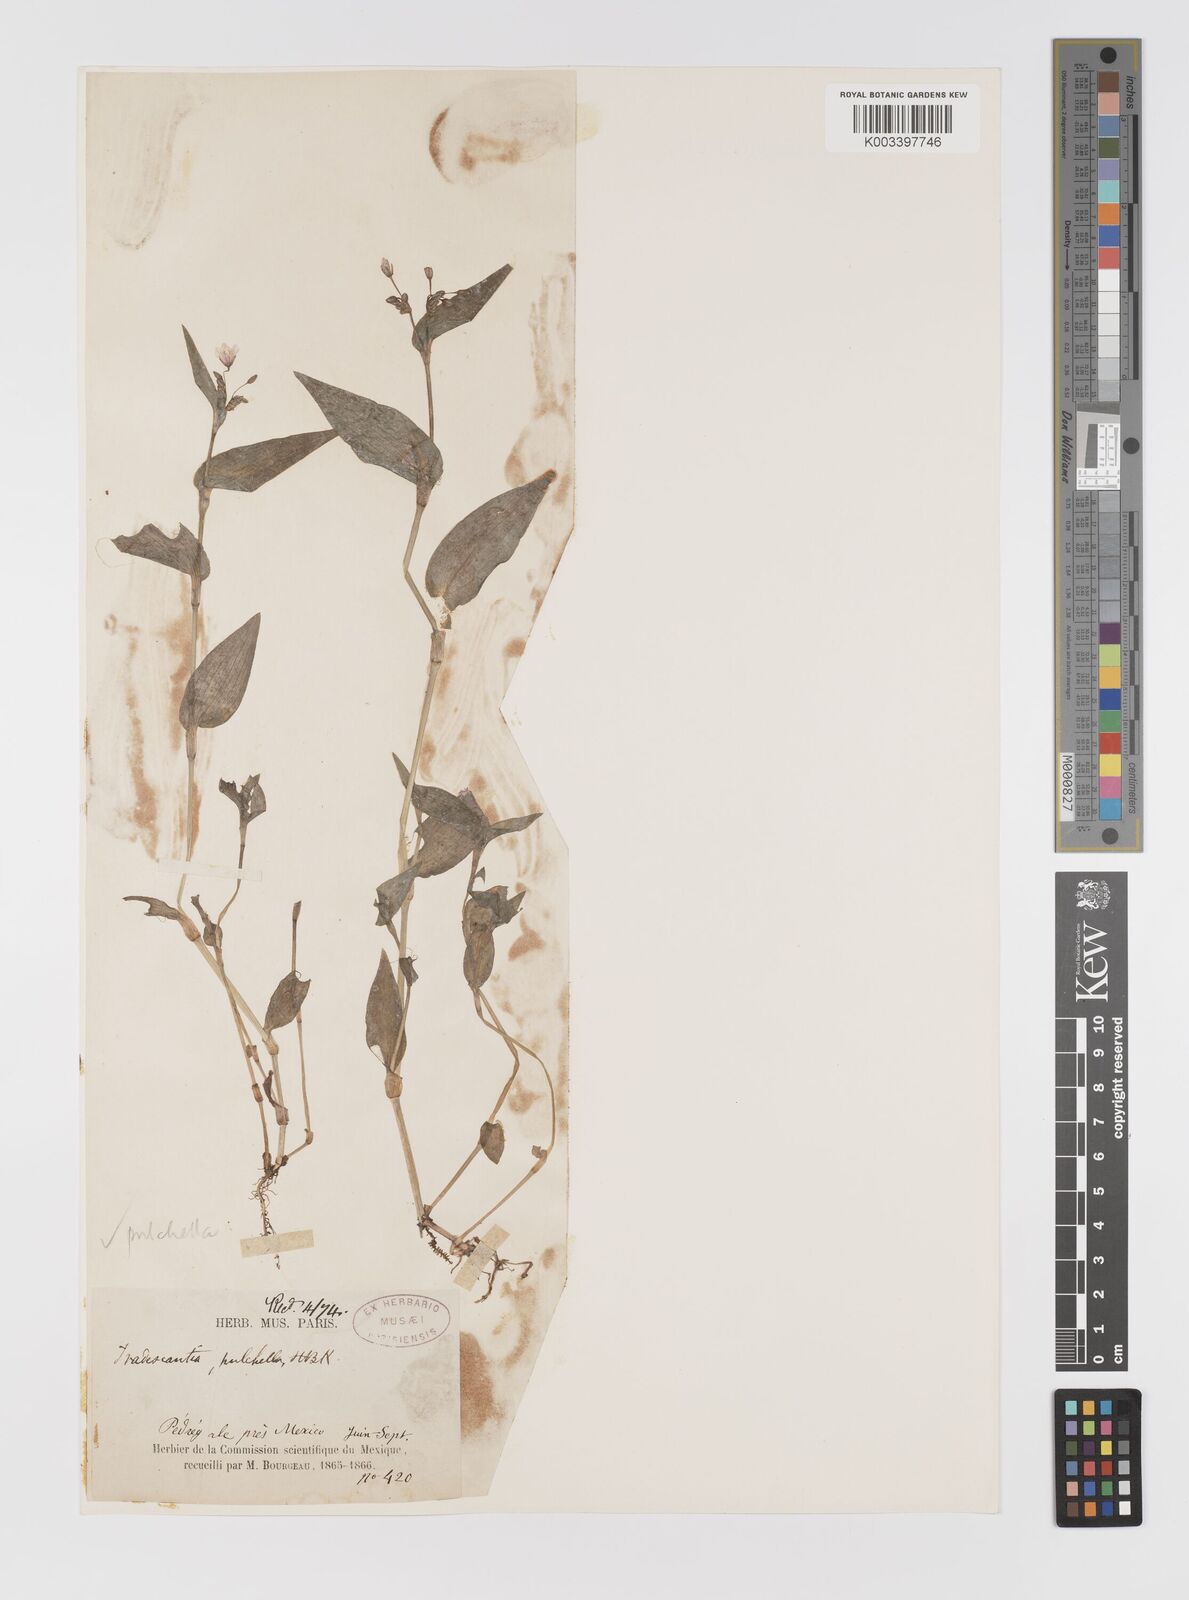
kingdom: Plantae
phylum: Tracheophyta
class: Liliopsida
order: Commelinales
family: Commelinaceae
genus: Gibasis
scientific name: Gibasis pulchella
